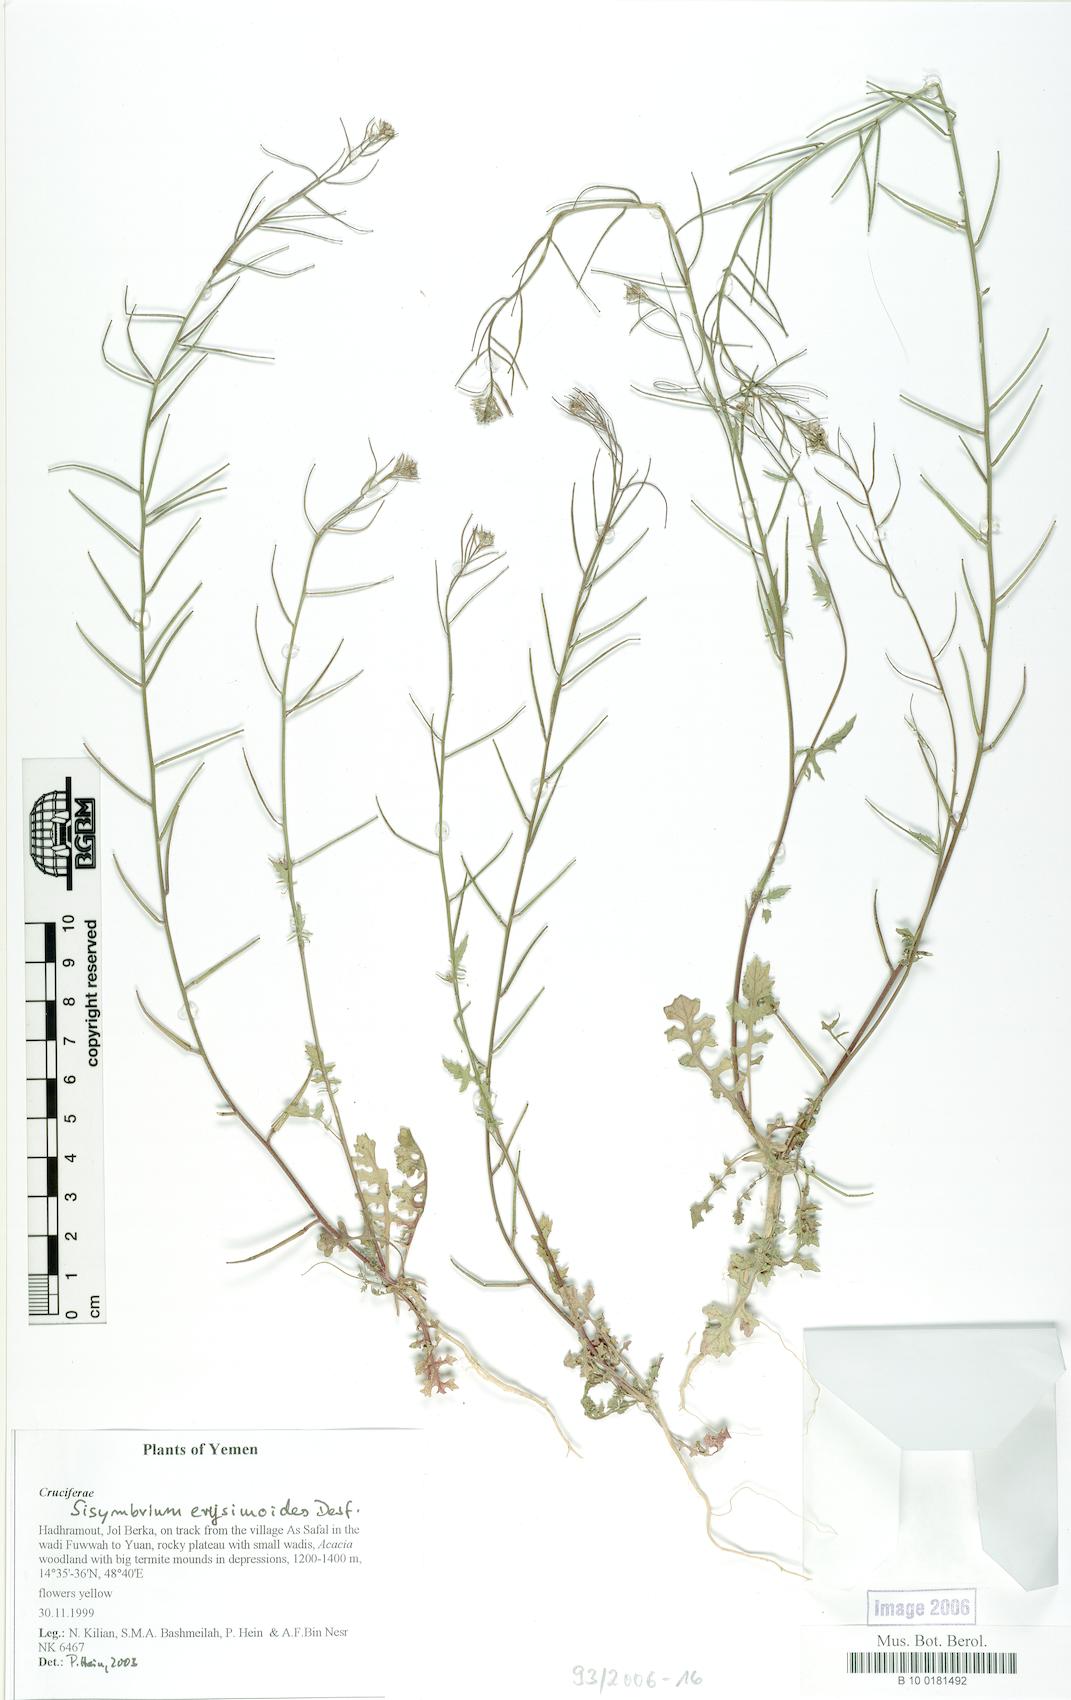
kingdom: Plantae
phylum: Tracheophyta
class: Magnoliopsida
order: Brassicales
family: Brassicaceae
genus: Sisymbrium
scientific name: Sisymbrium erysimoides
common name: French rocket
